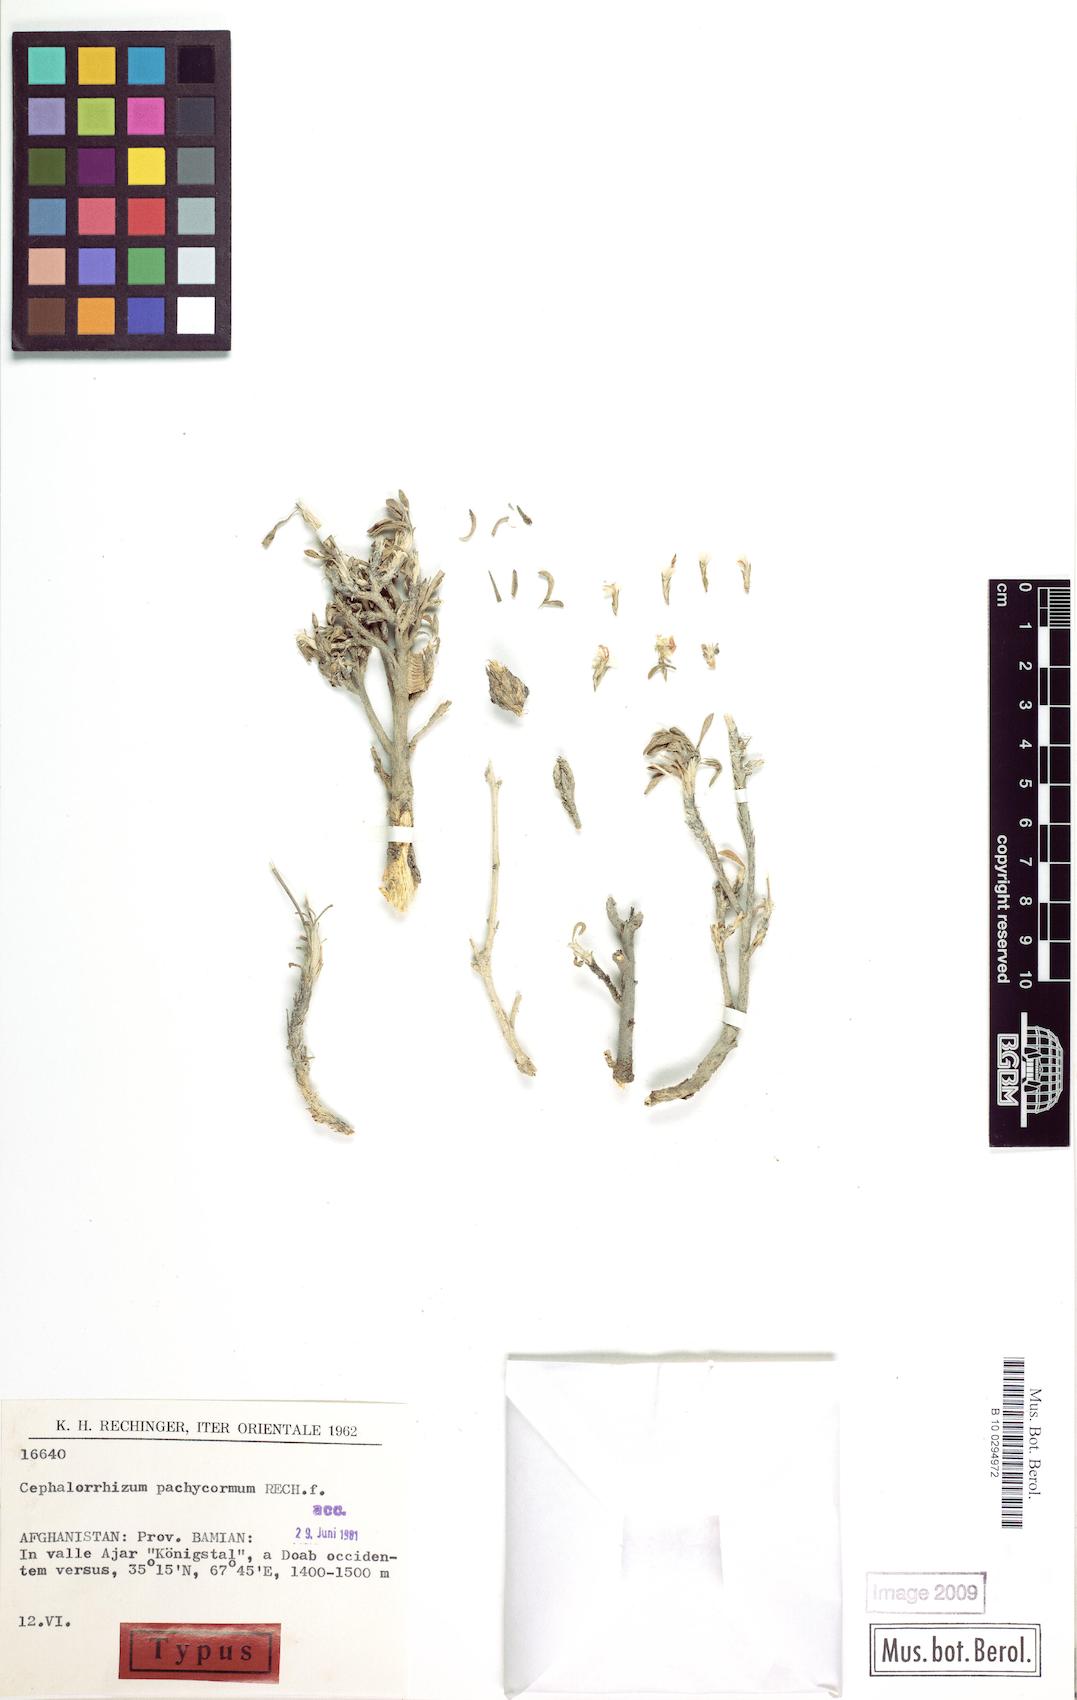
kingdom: Plantae
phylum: Tracheophyta
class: Magnoliopsida
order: Caryophyllales
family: Plumbaginaceae
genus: Bamiania
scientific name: Bamiania pachycorma
